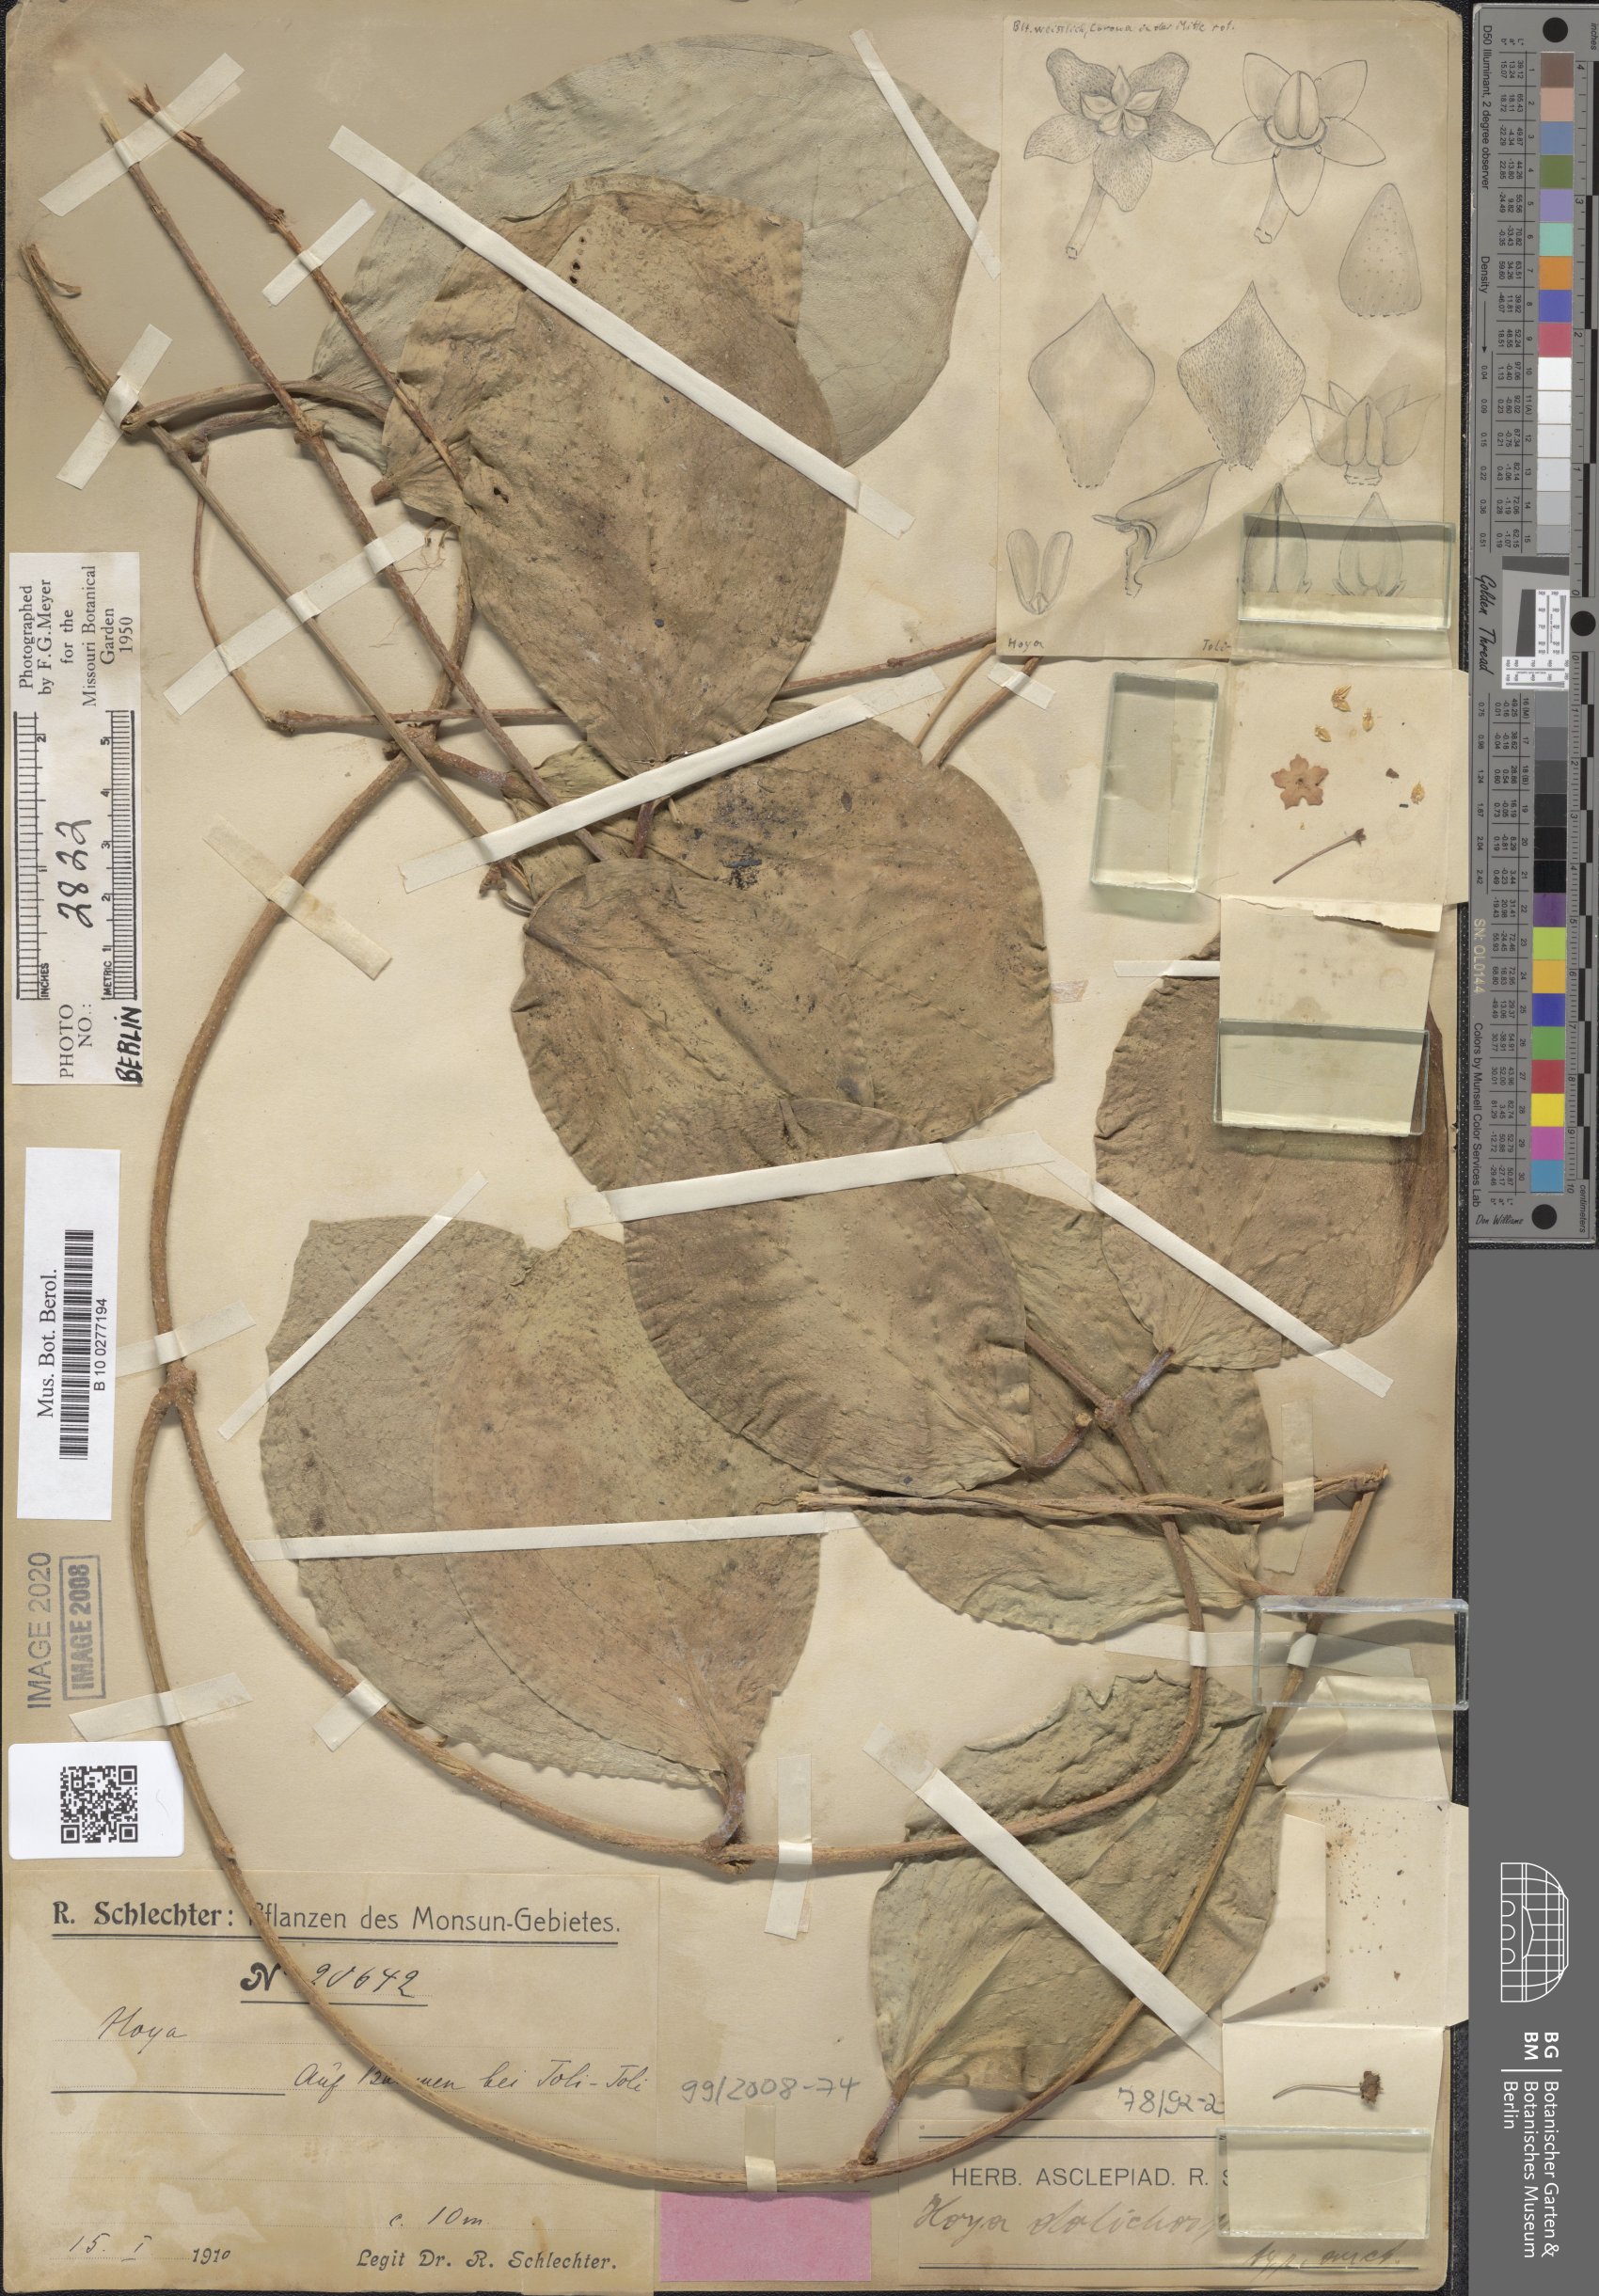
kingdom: Plantae
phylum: Tracheophyta
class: Magnoliopsida
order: Gentianales
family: Apocynaceae
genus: Hoya
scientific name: Hoya dolichosparte
